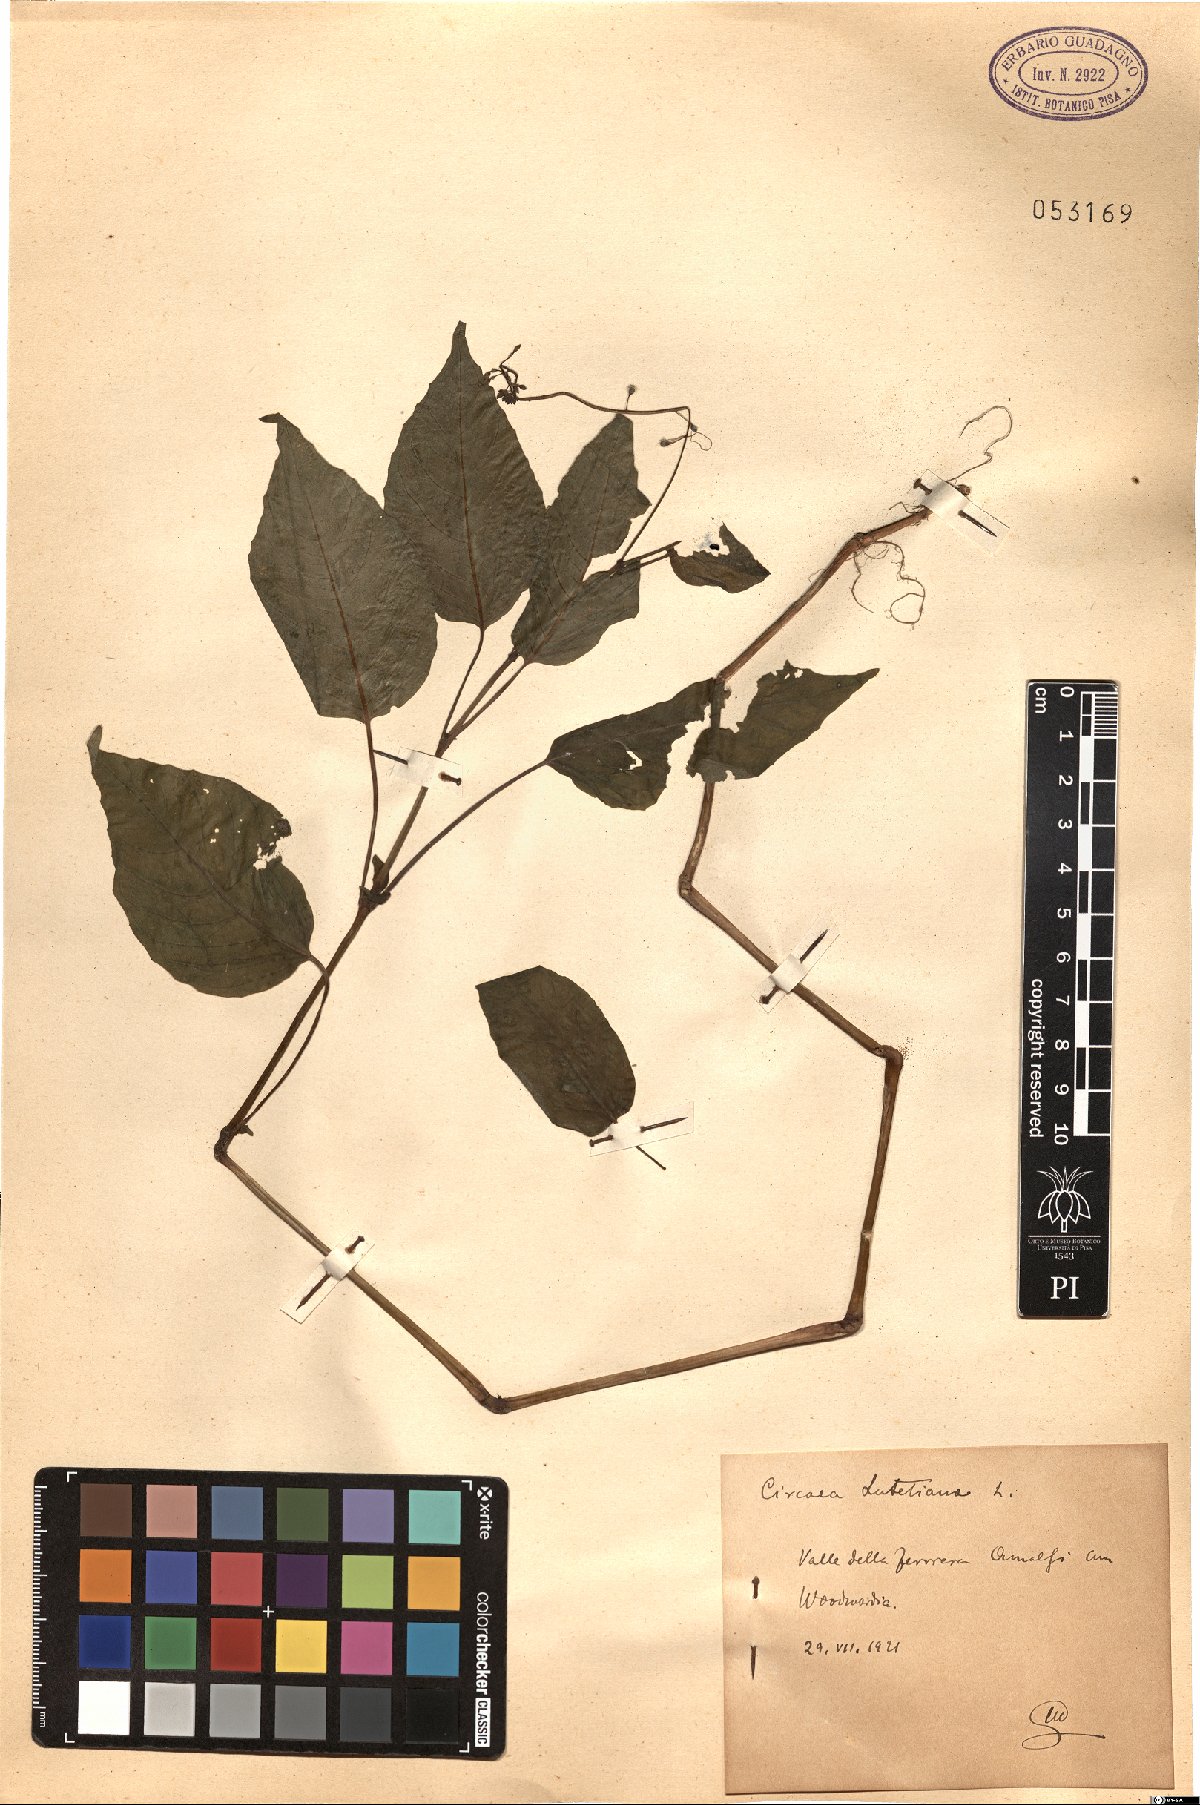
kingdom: Plantae
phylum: Tracheophyta
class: Magnoliopsida
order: Myrtales
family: Onagraceae
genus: Circaea
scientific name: Circaea lutetiana
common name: Enchanter's-nightshade
